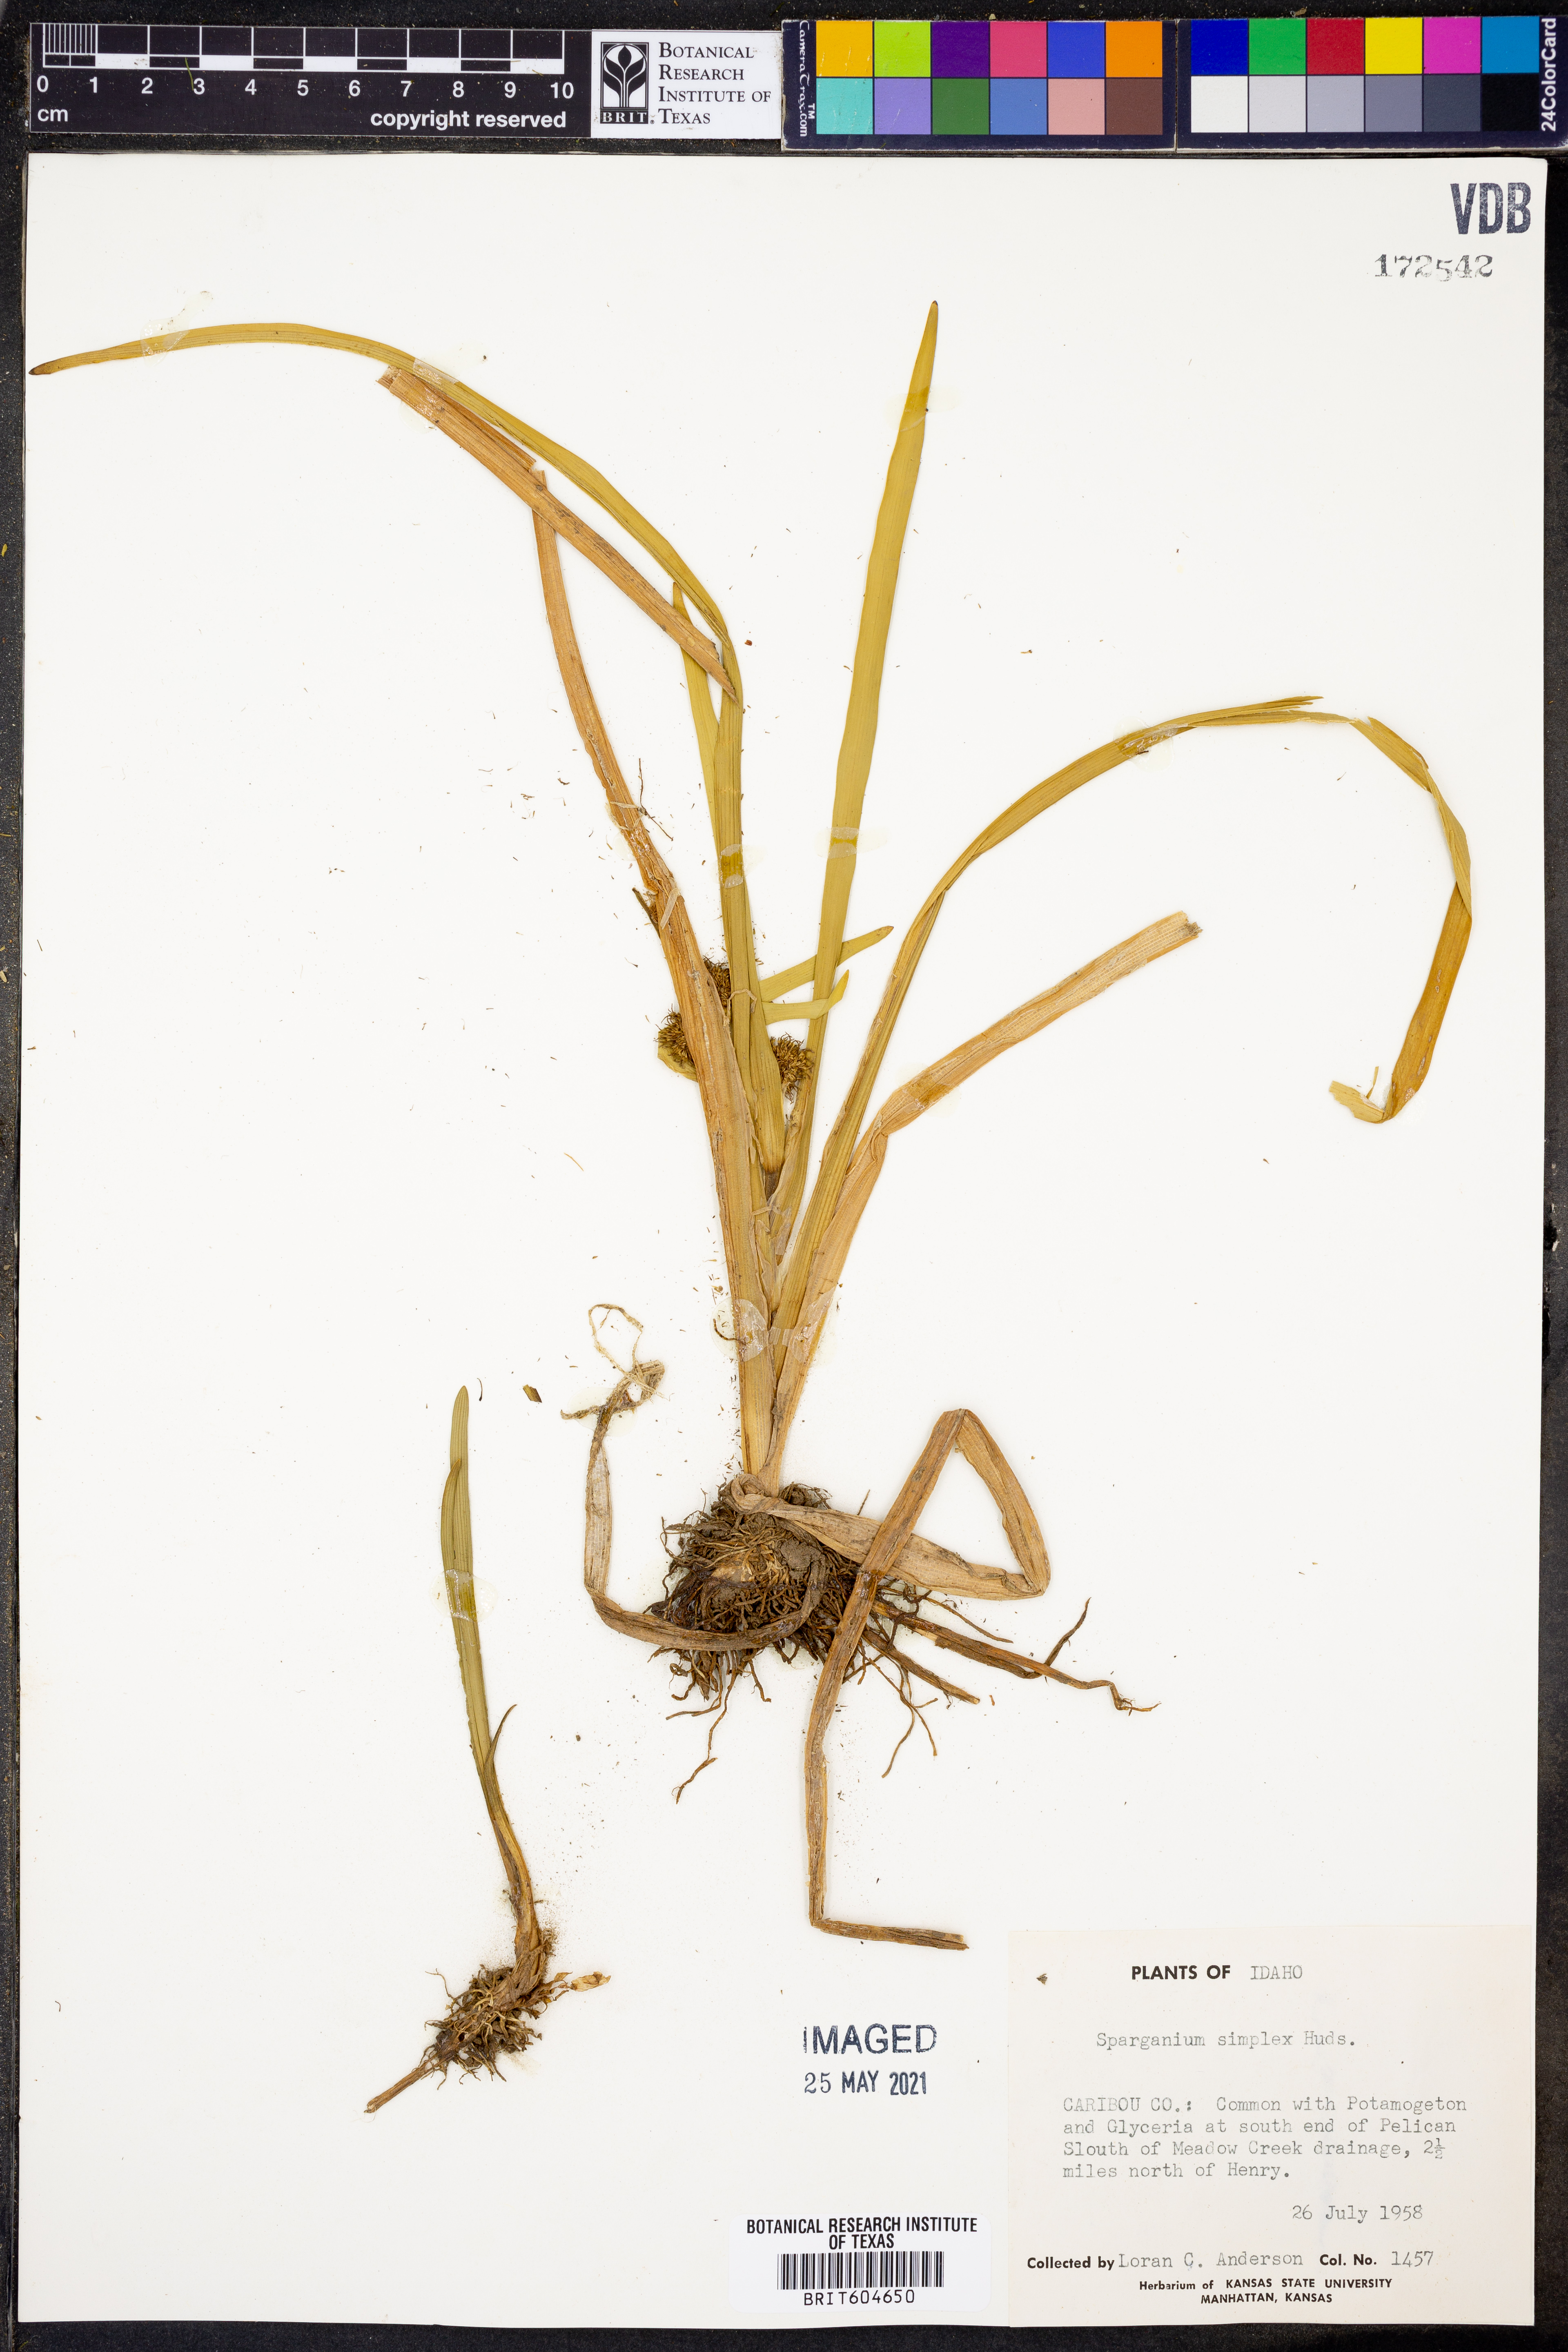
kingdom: Plantae
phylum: Tracheophyta
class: Liliopsida
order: Poales
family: Typhaceae
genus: Sparganium
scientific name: Sparganium angustifolium
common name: Floating bur-reed
